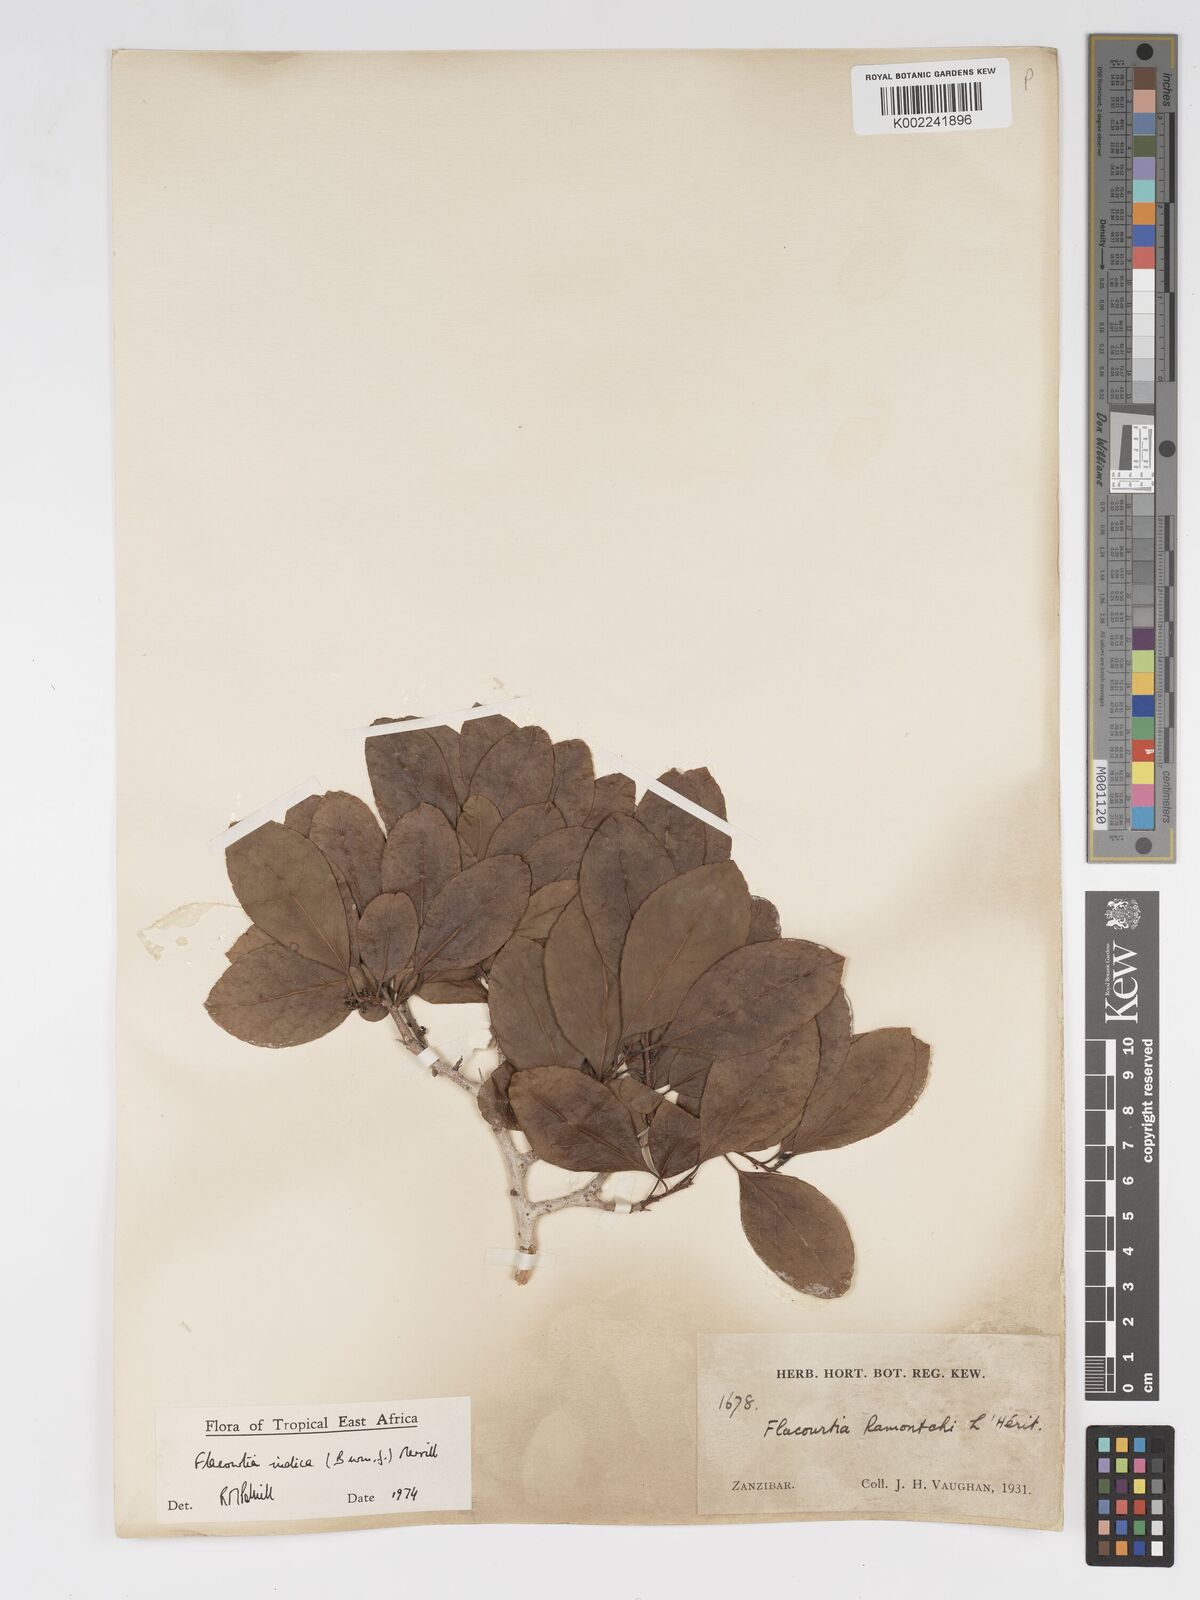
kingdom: Plantae
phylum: Tracheophyta
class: Magnoliopsida
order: Malpighiales
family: Salicaceae
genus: Flacourtia
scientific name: Flacourtia indica
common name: Governor's plum
